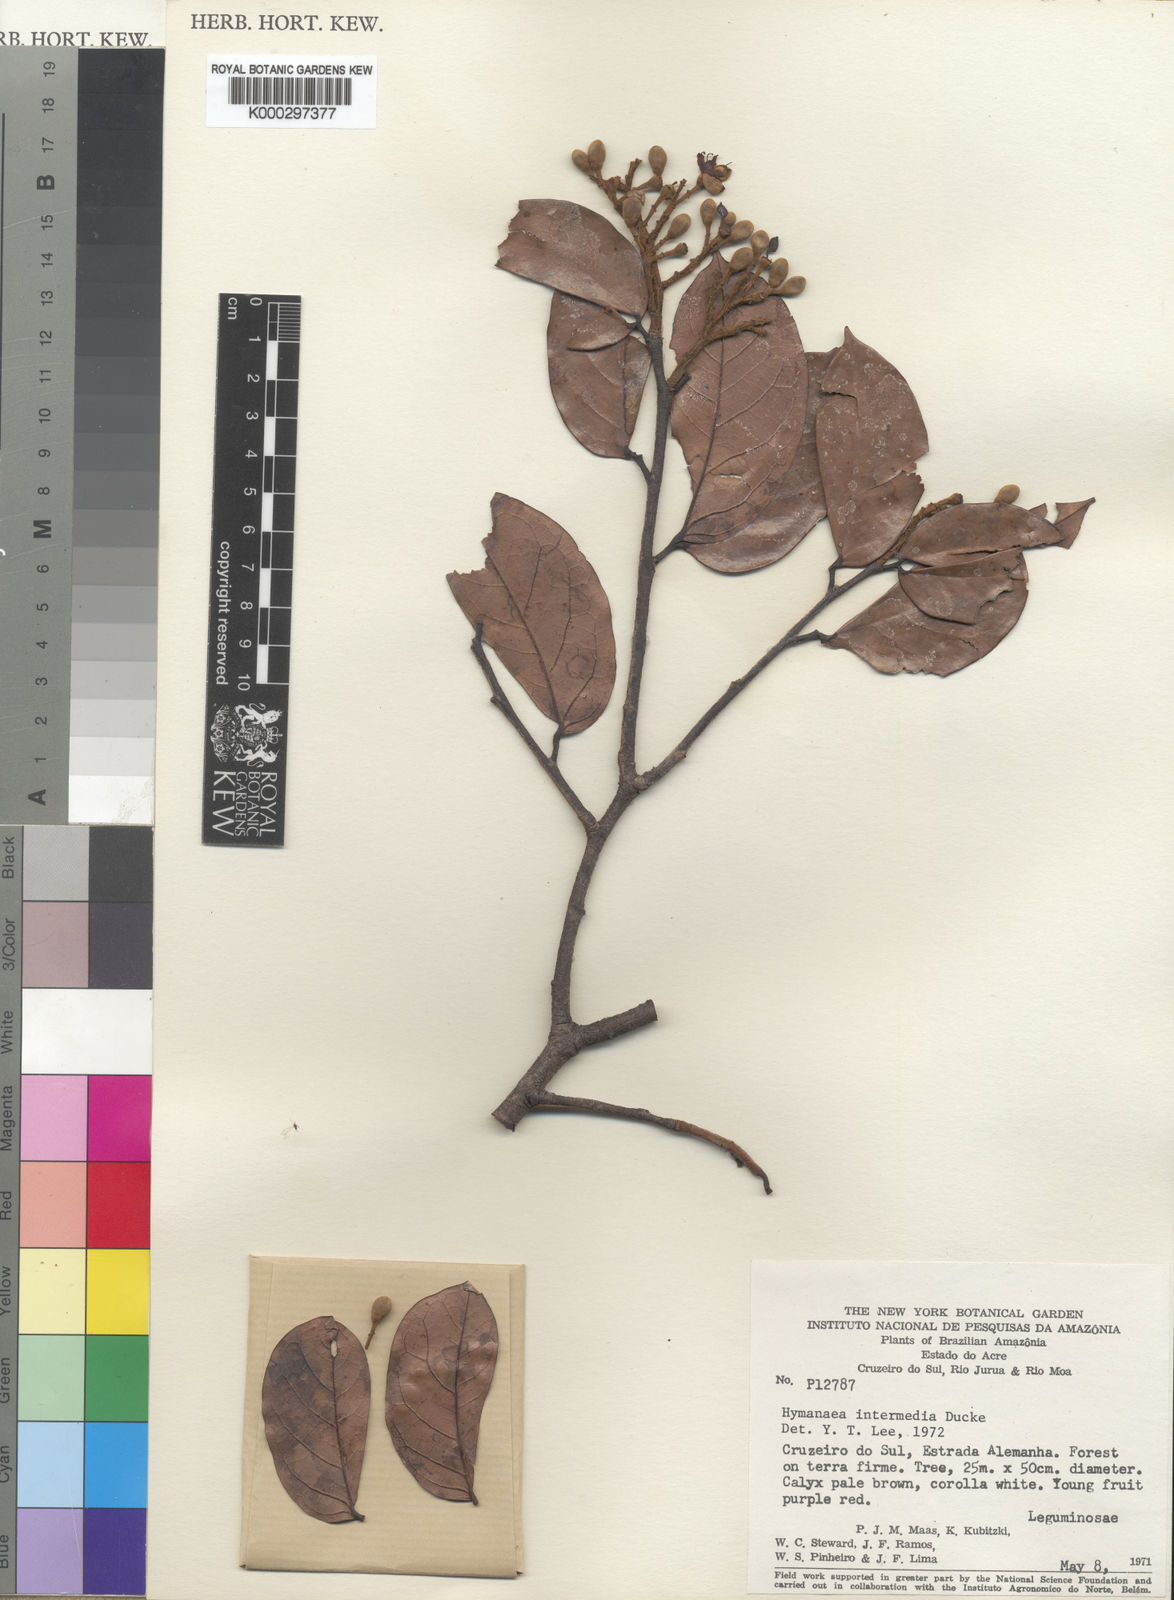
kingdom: Plantae
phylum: Tracheophyta
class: Magnoliopsida
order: Fabales
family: Fabaceae
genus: Hymenaea
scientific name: Hymenaea intermedia
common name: South american copal
